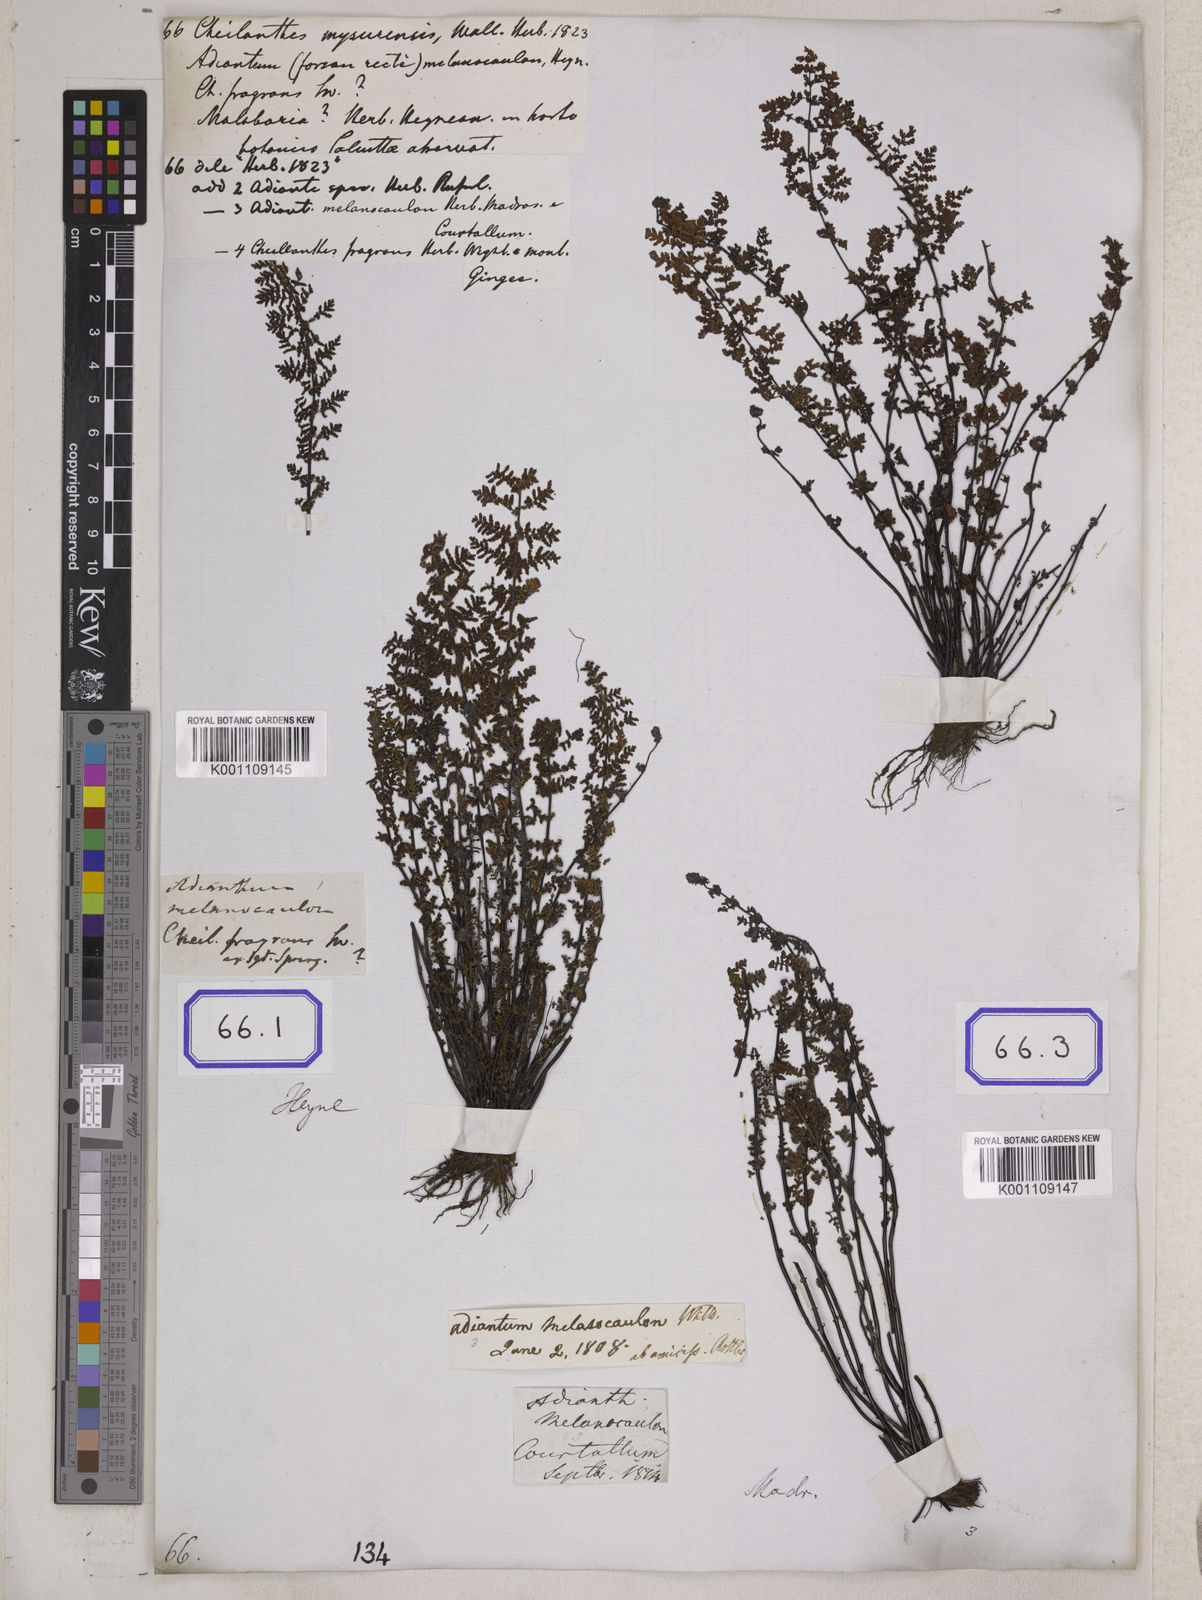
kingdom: Plantae
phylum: Tracheophyta
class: Polypodiopsida
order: Polypodiales
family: Pteridaceae
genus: Oeosporangium
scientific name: Oeosporangium elegans
